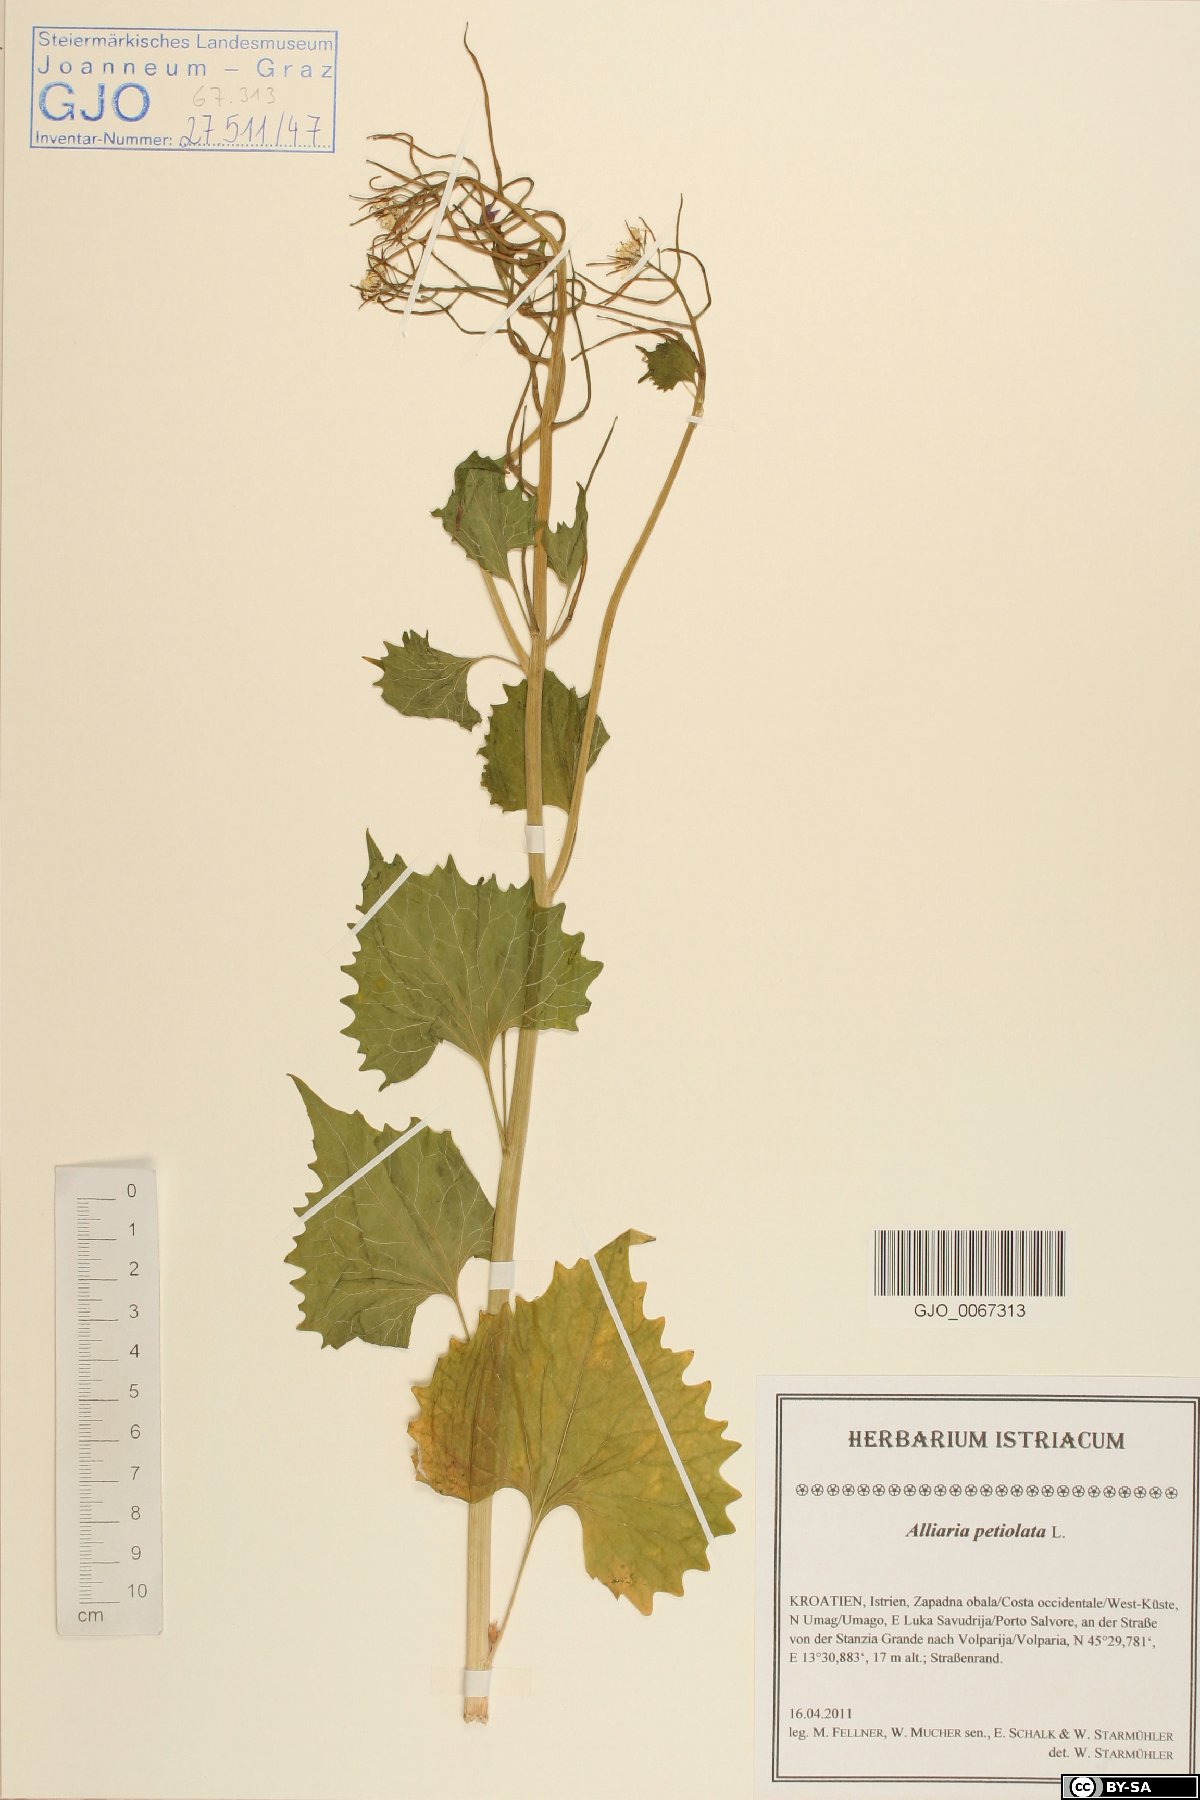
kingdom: Plantae
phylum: Tracheophyta
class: Magnoliopsida
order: Brassicales
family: Brassicaceae
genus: Alliaria
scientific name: Alliaria petiolata
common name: Garlic mustard
